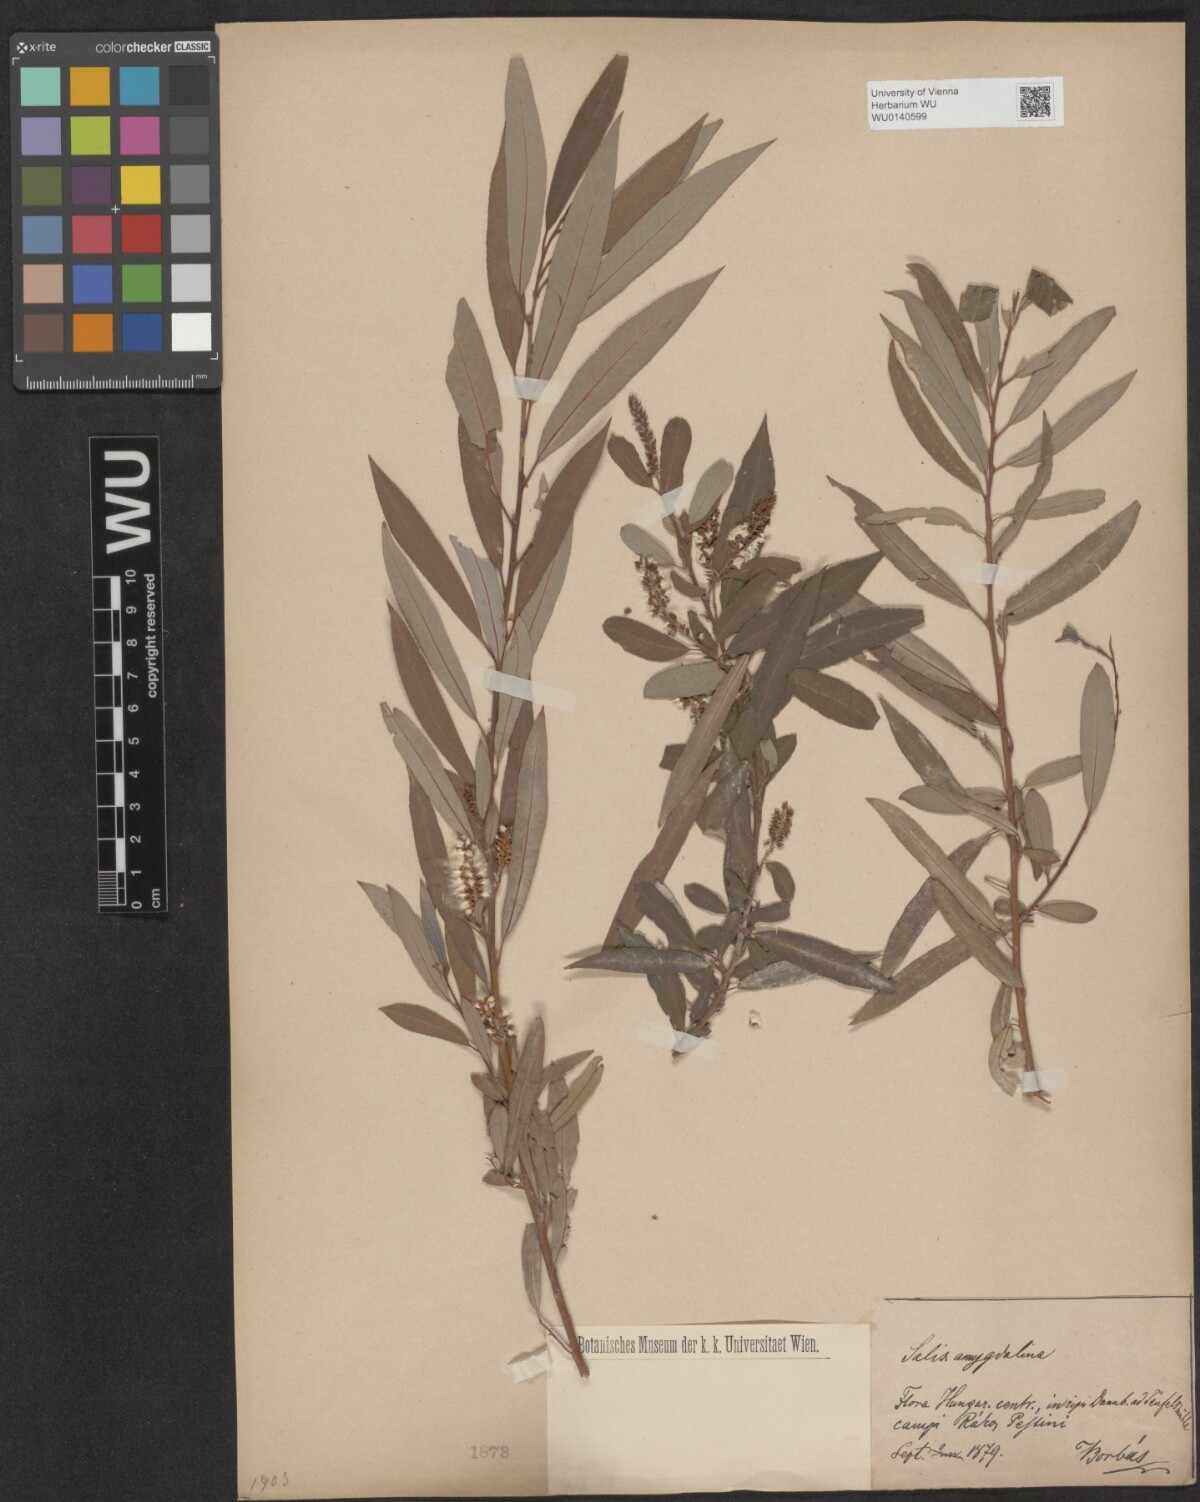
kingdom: Plantae
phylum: Tracheophyta
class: Magnoliopsida
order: Malpighiales
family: Salicaceae
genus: Salix
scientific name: Salix triandra
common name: Almond willow
